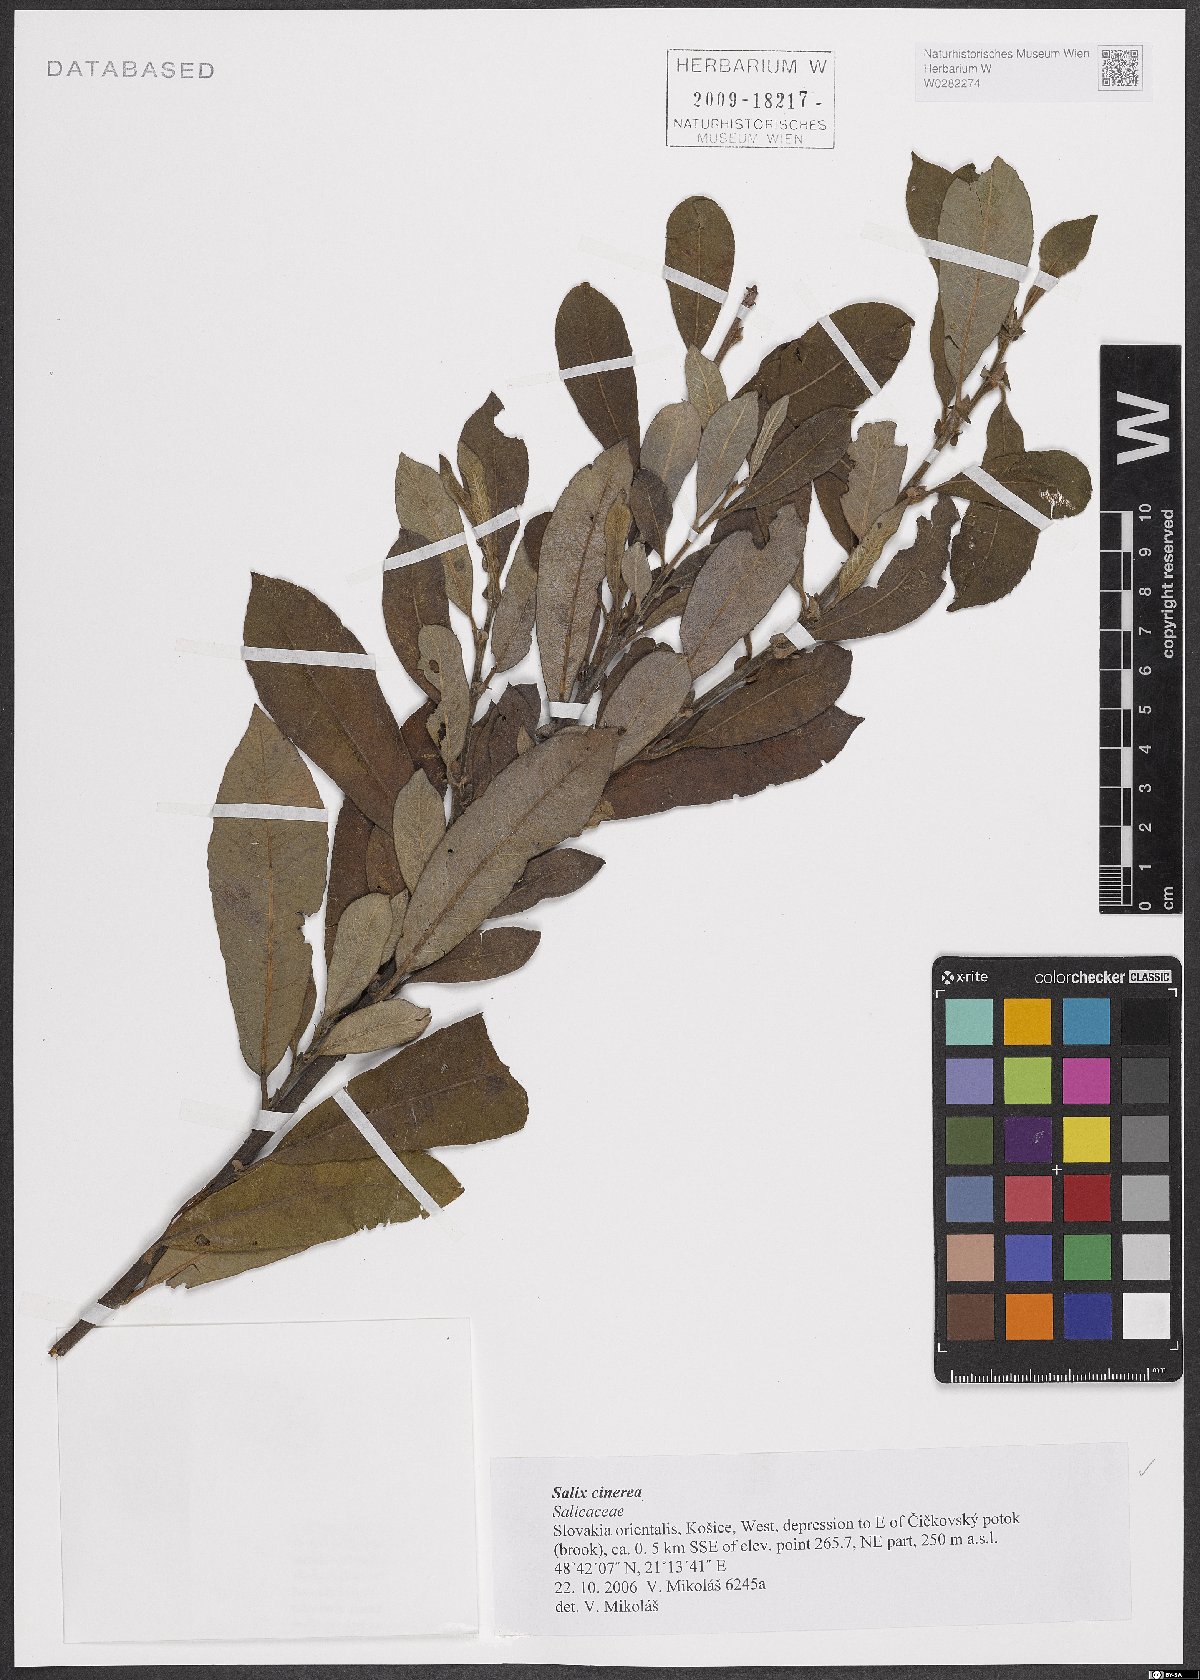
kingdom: Plantae
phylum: Tracheophyta
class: Magnoliopsida
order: Malpighiales
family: Salicaceae
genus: Salix
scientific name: Salix cinerea
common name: Common sallow
